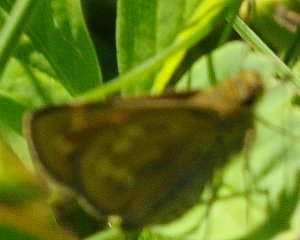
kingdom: Animalia
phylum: Arthropoda
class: Insecta
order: Lepidoptera
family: Hesperiidae
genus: Hesperia
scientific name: Hesperia sassacus
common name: Sassacus Skipper
